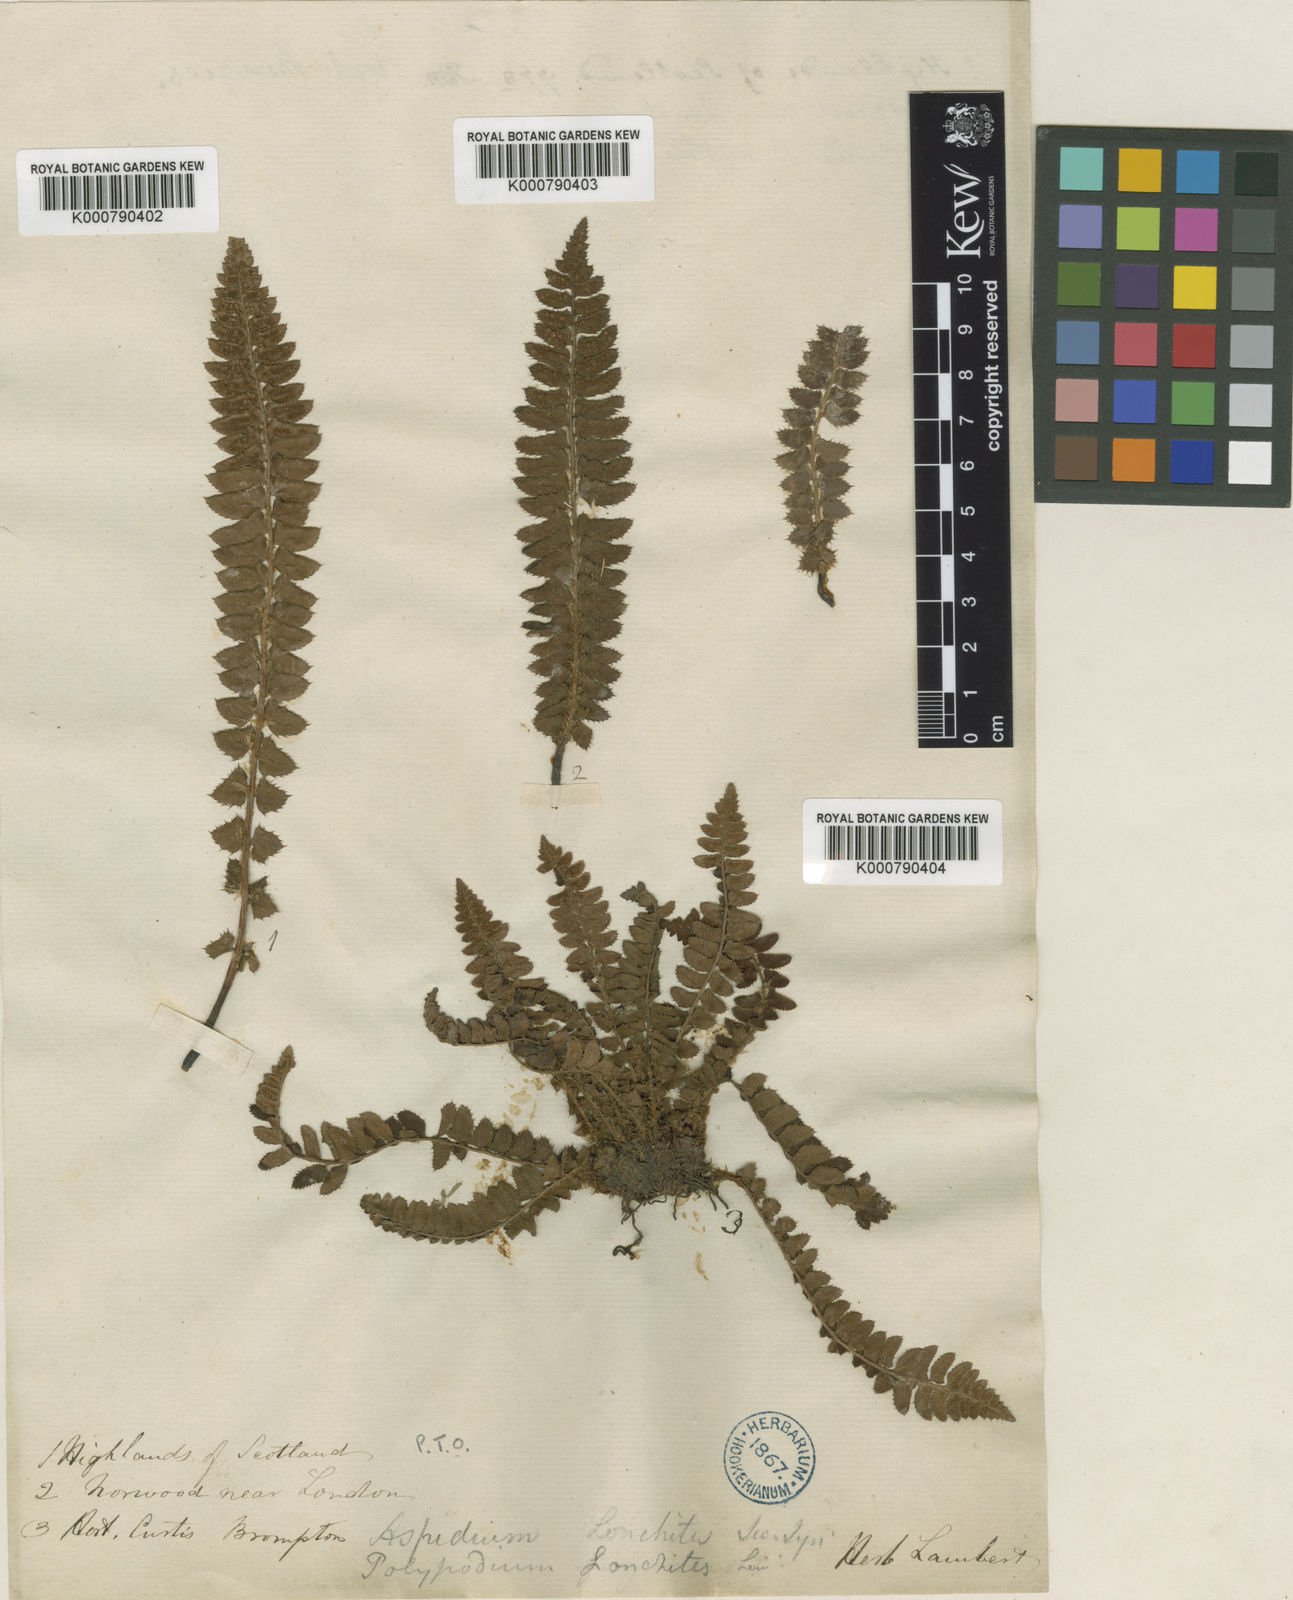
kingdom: Plantae
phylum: Tracheophyta
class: Polypodiopsida
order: Polypodiales
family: Dryopteridaceae
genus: Polystichum
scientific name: Polystichum
